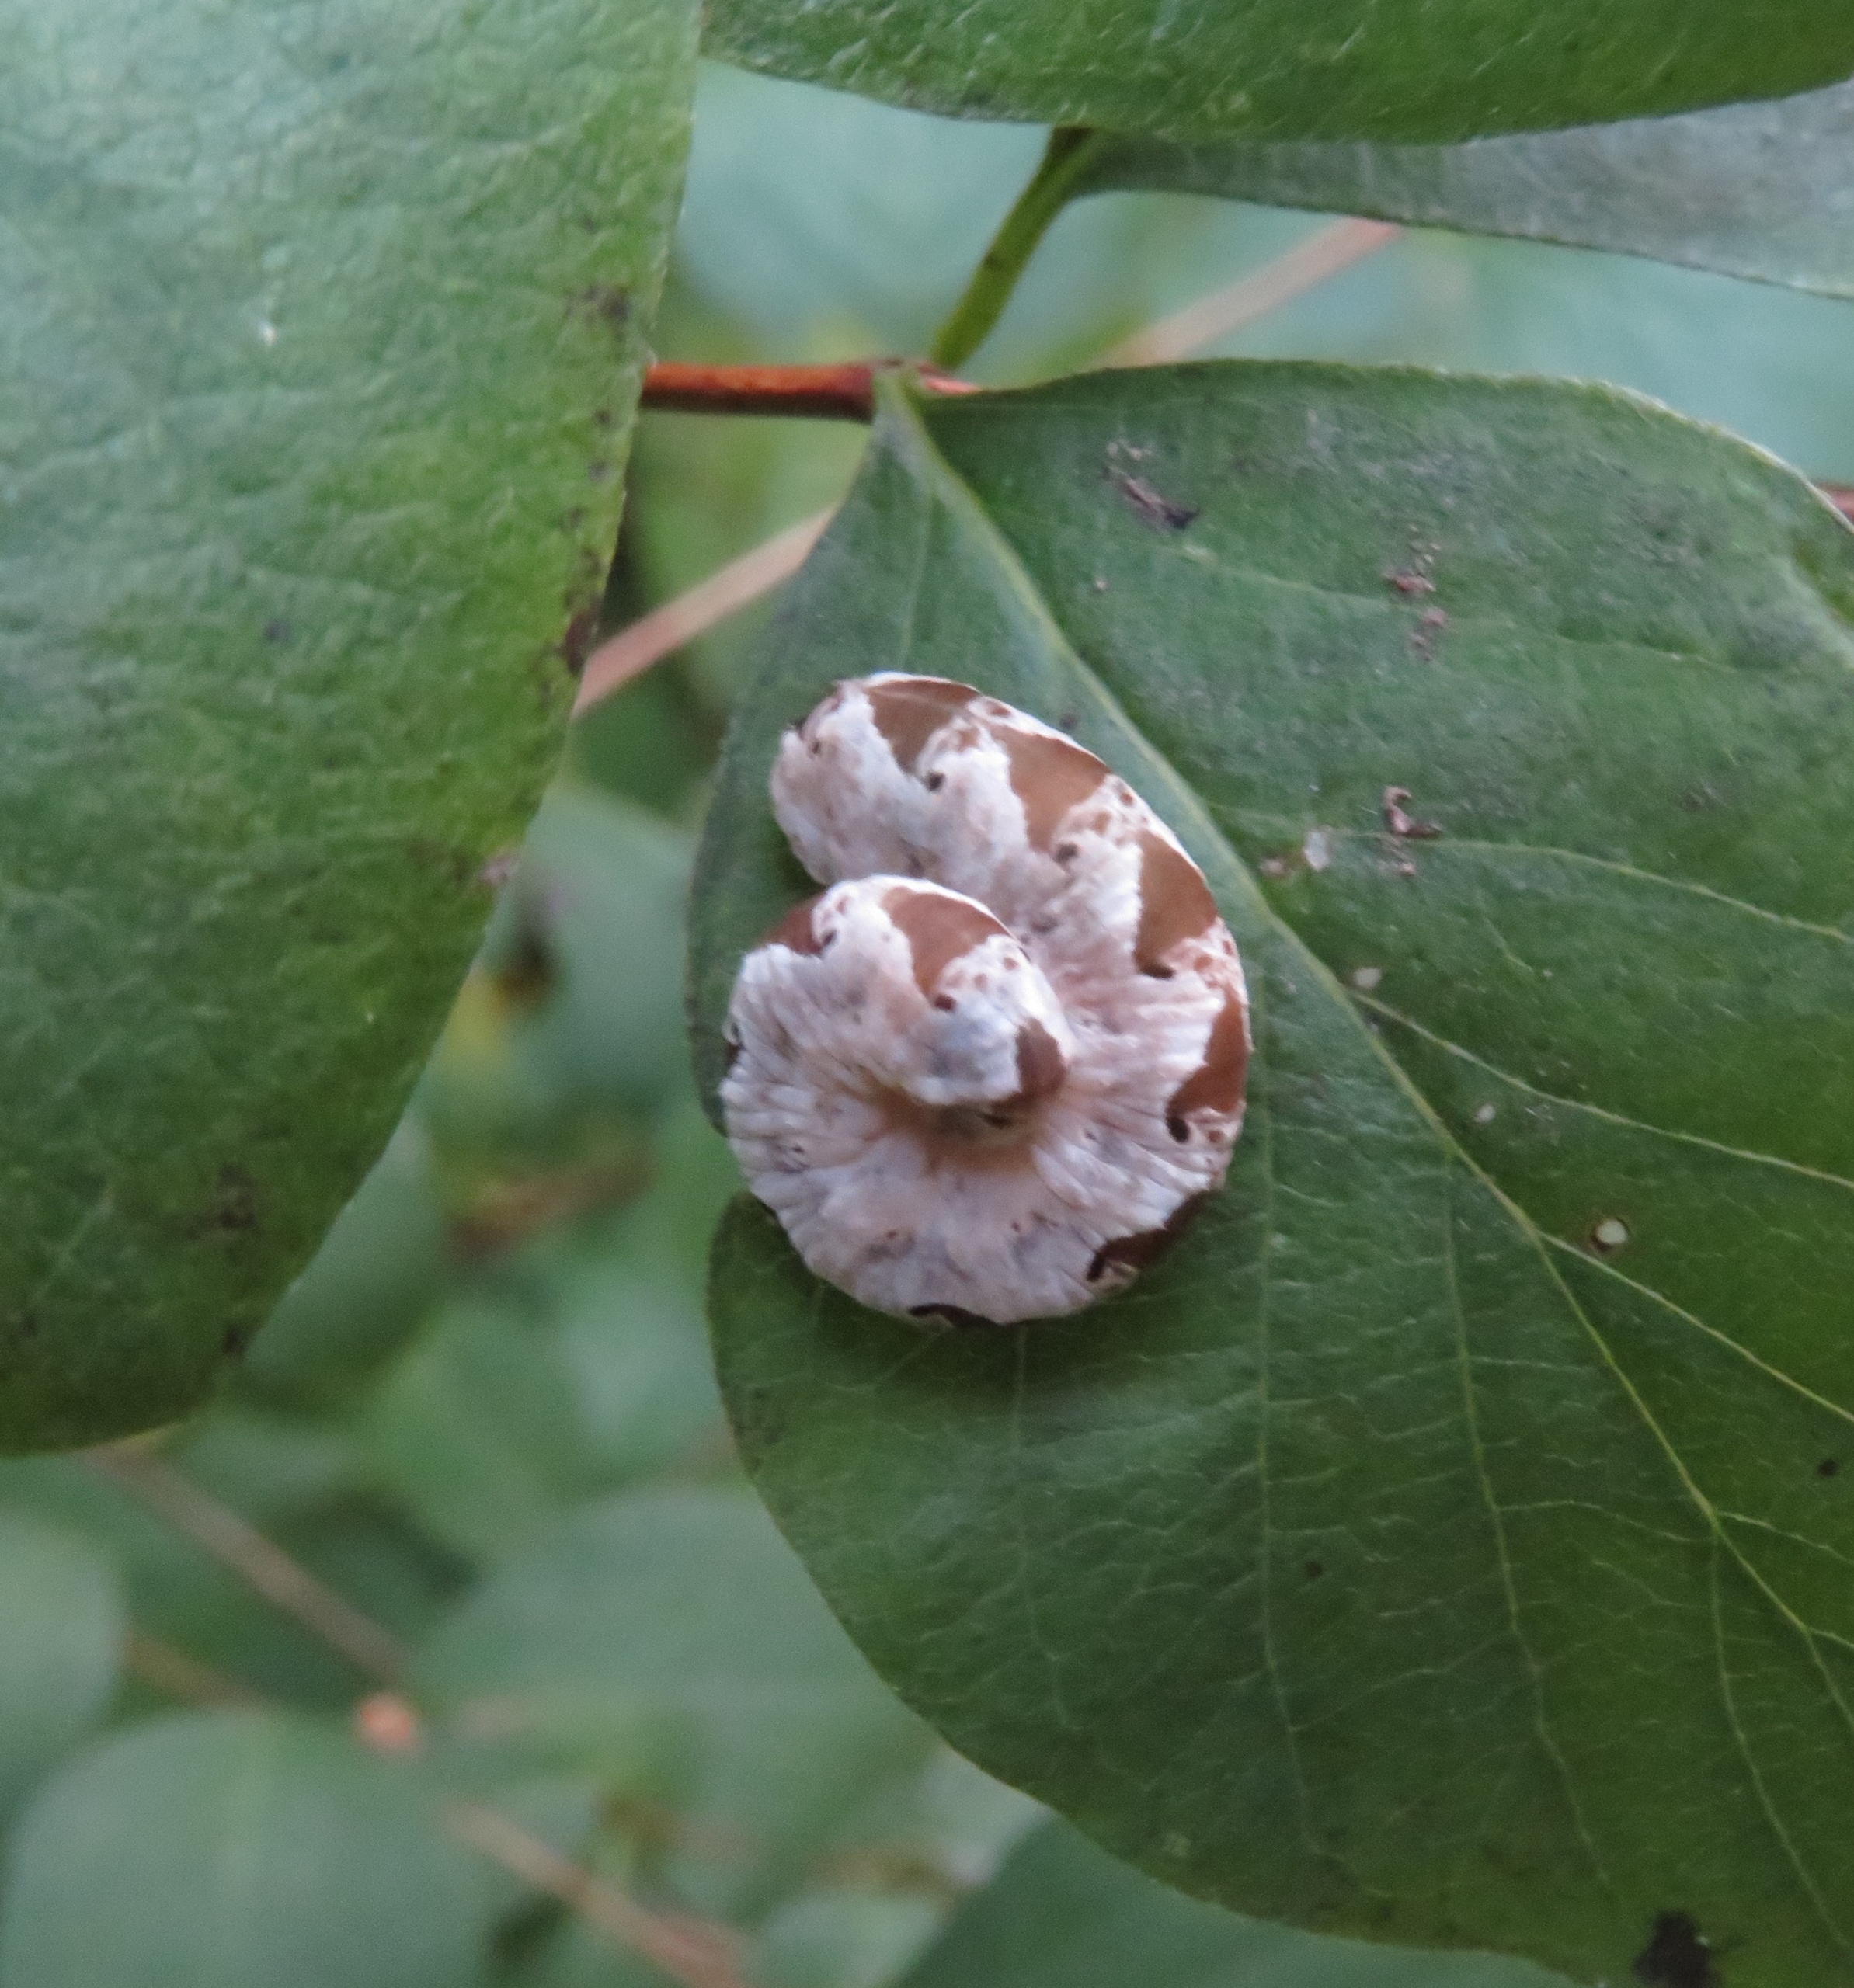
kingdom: Animalia
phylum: Arthropoda
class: Insecta
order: Hymenoptera
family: Tenthredinidae
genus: Tenthredo
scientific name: Tenthredo vespa
